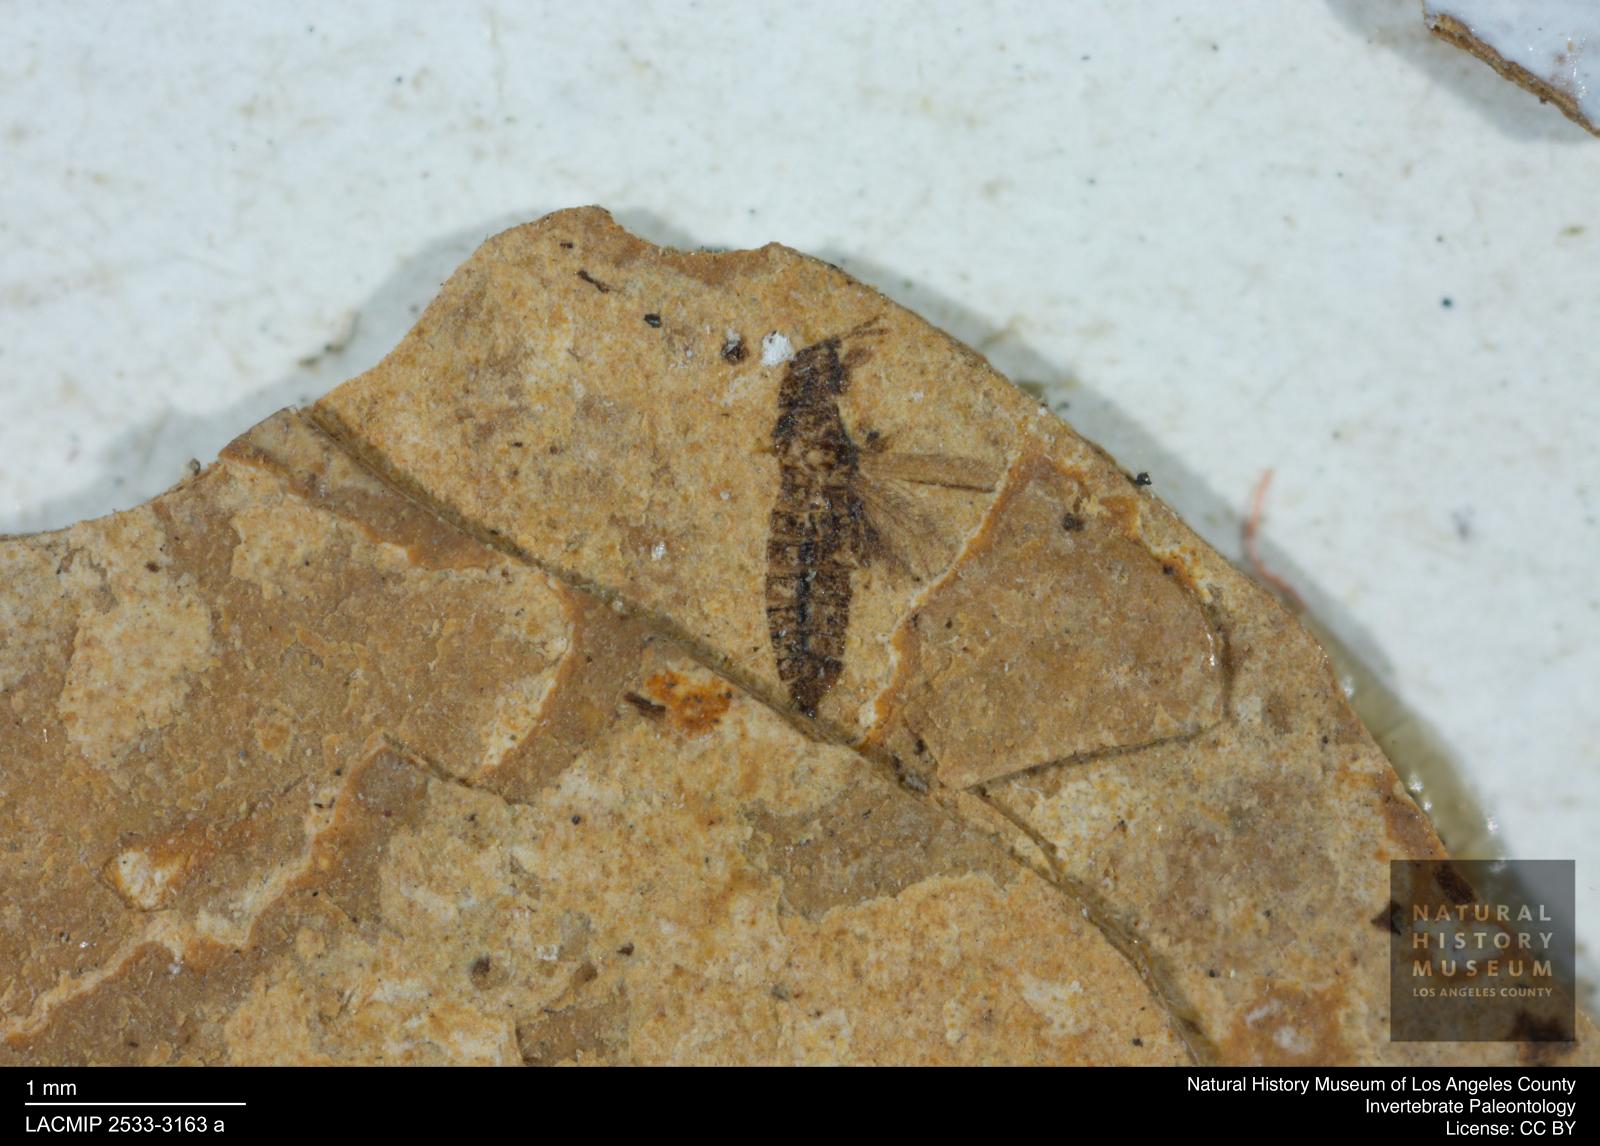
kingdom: Animalia
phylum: Arthropoda
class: Insecta
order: Thysanoptera
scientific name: Thysanoptera
